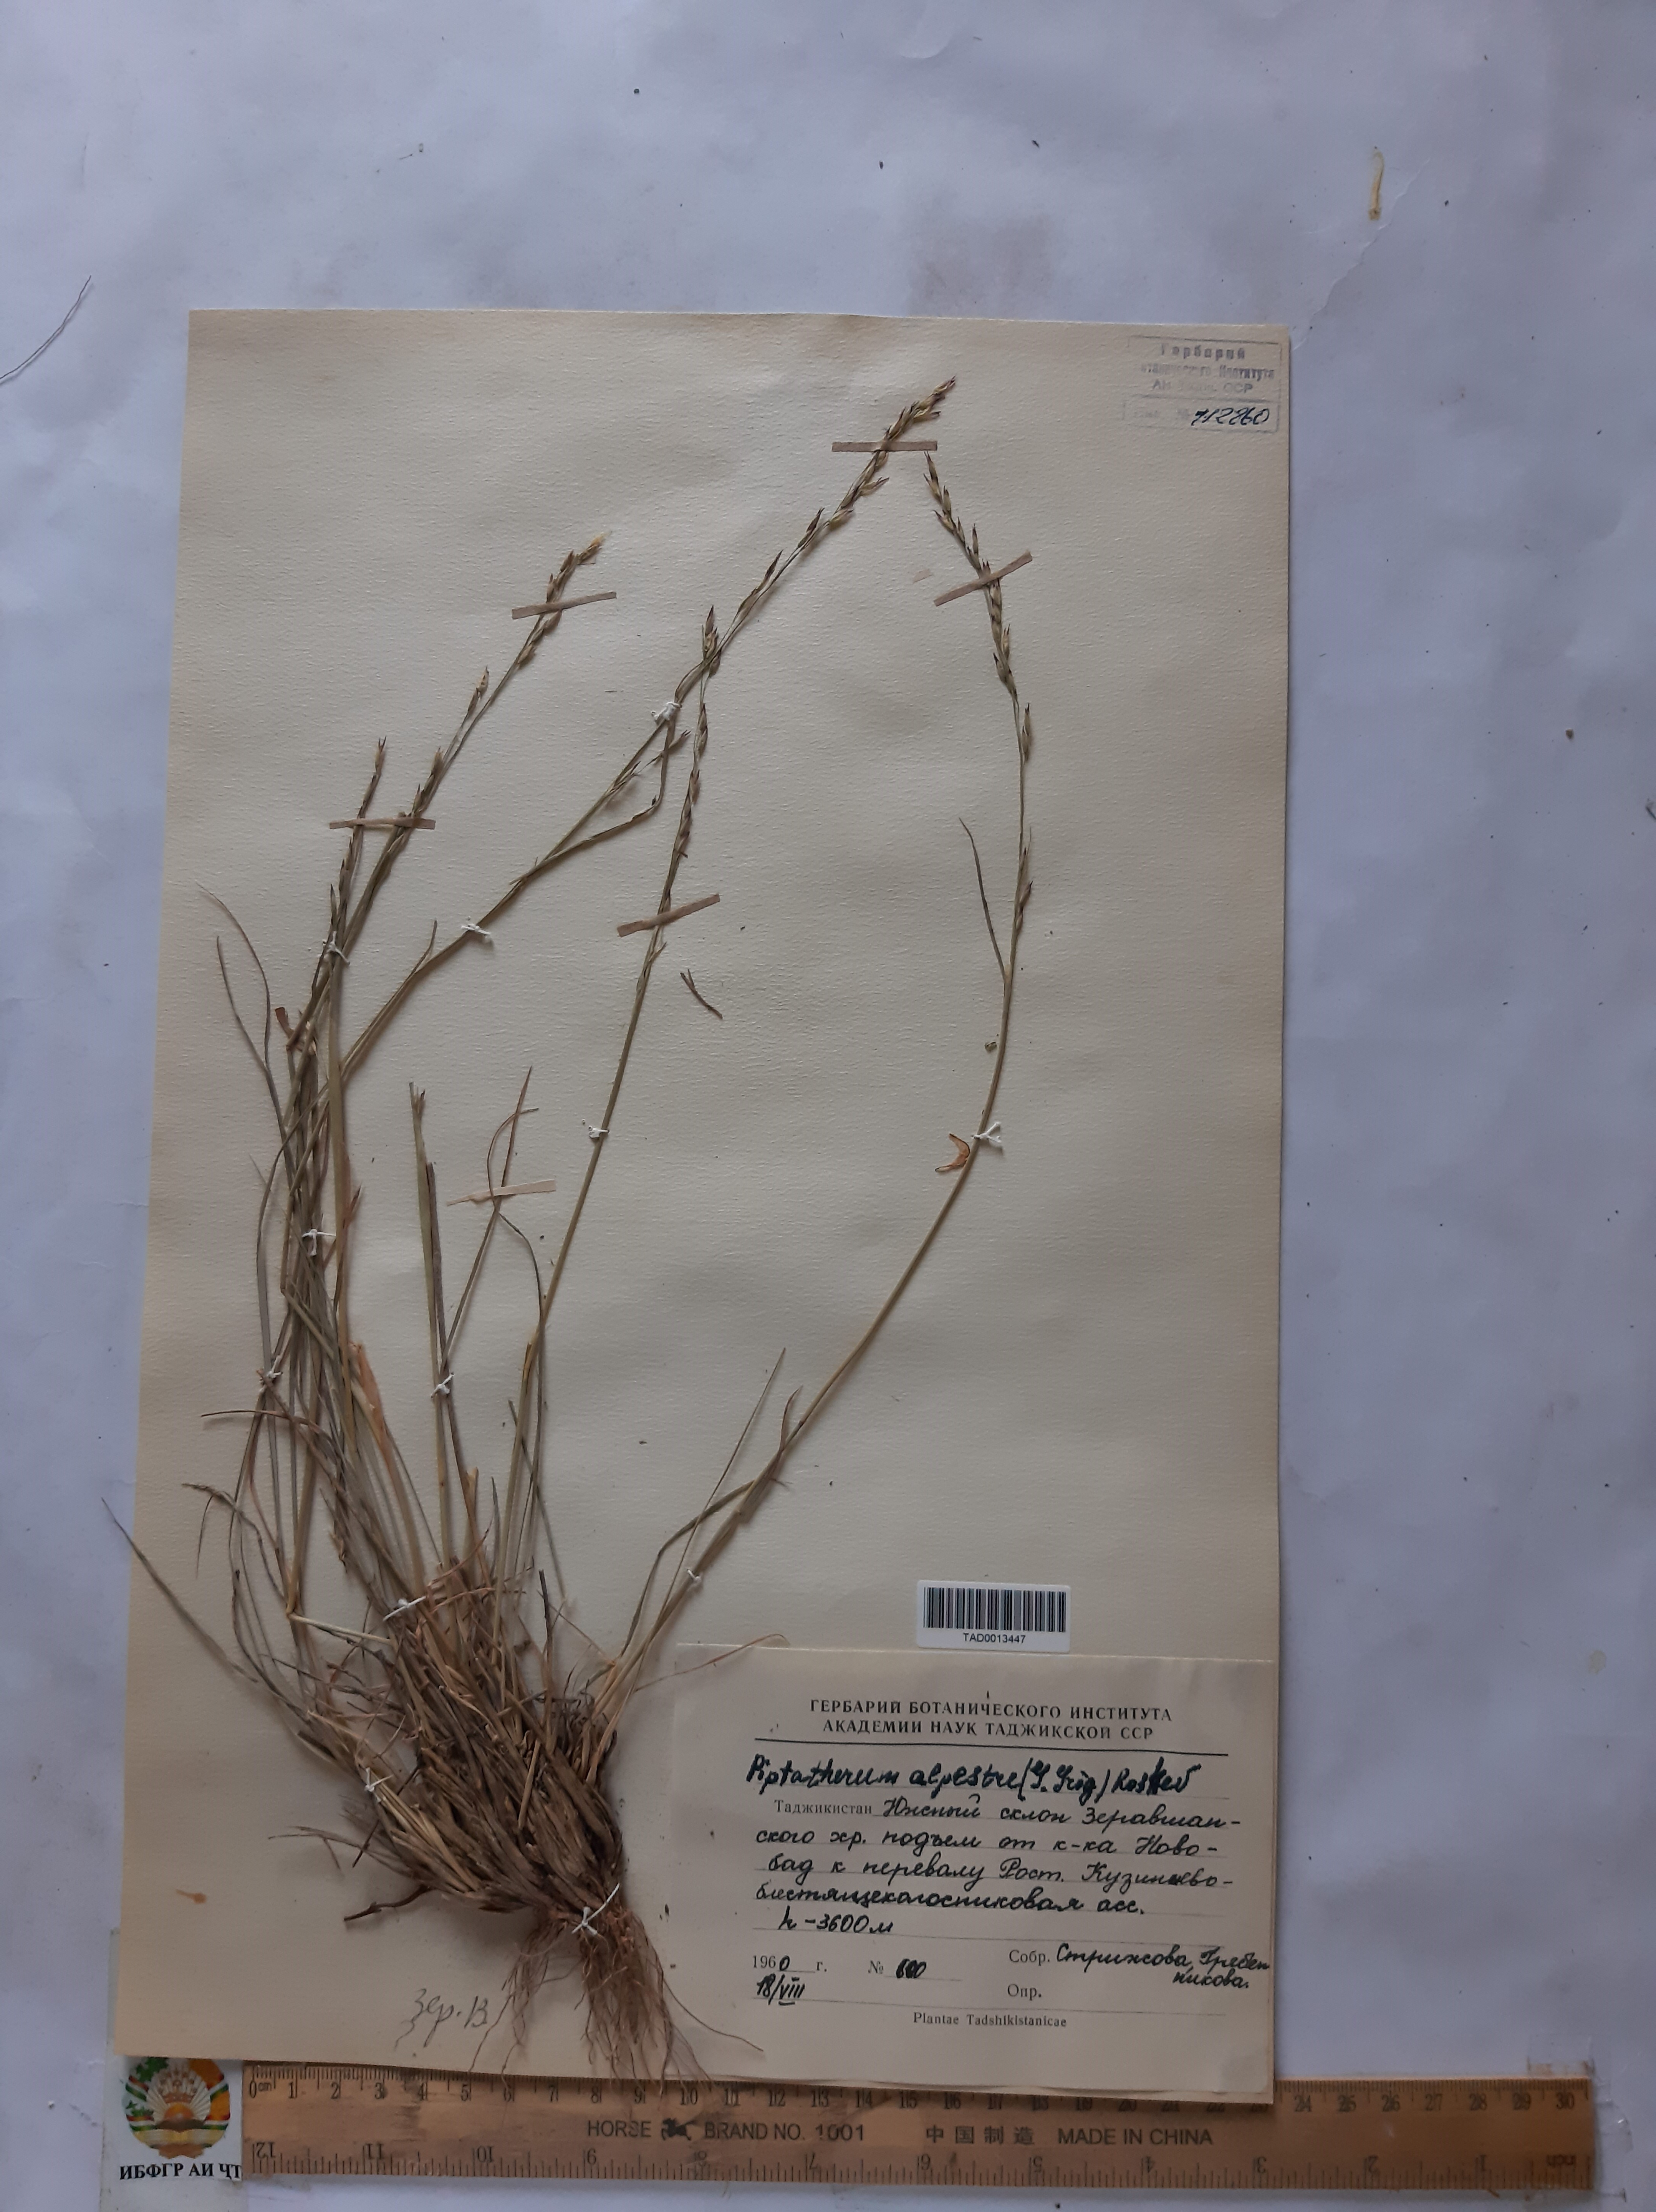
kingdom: Plantae
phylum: Tracheophyta
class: Liliopsida
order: Poales
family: Poaceae
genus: Piptatherum
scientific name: Piptatherum alpestre
